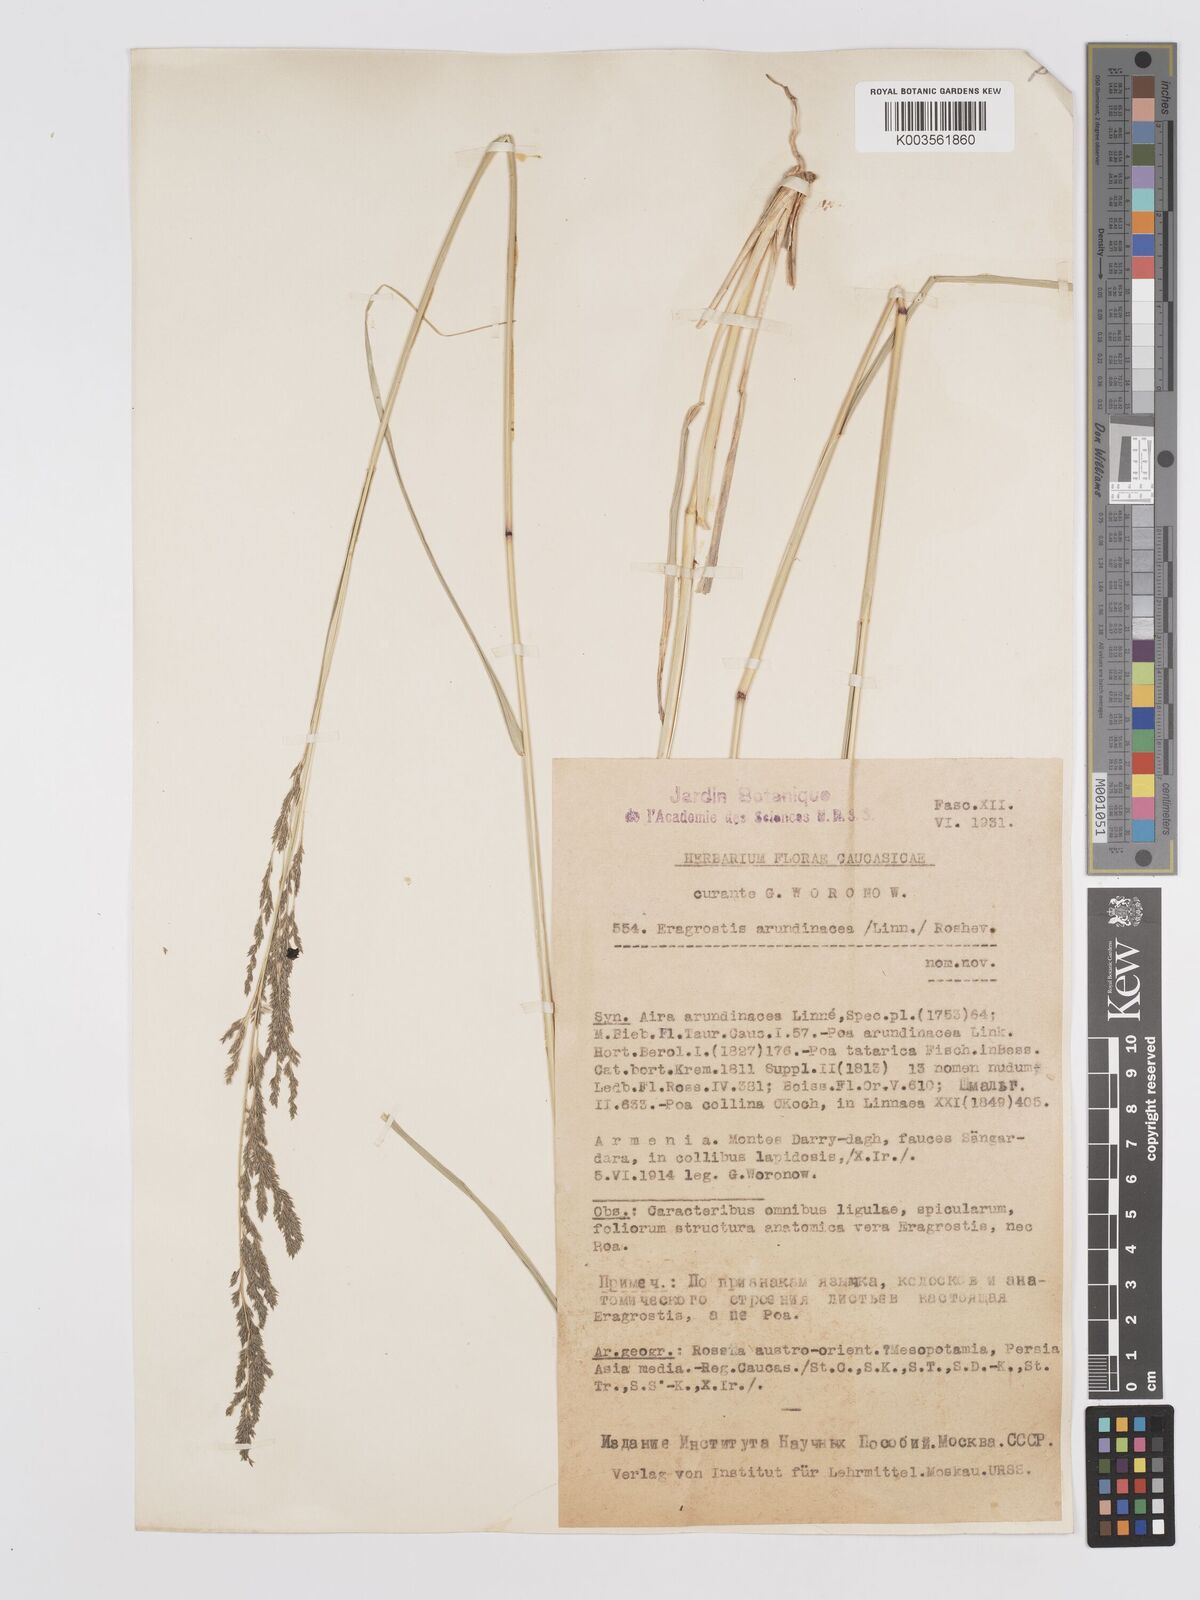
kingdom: Plantae
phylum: Tracheophyta
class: Liliopsida
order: Poales
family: Poaceae
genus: Eragrostis
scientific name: Eragrostis collina
